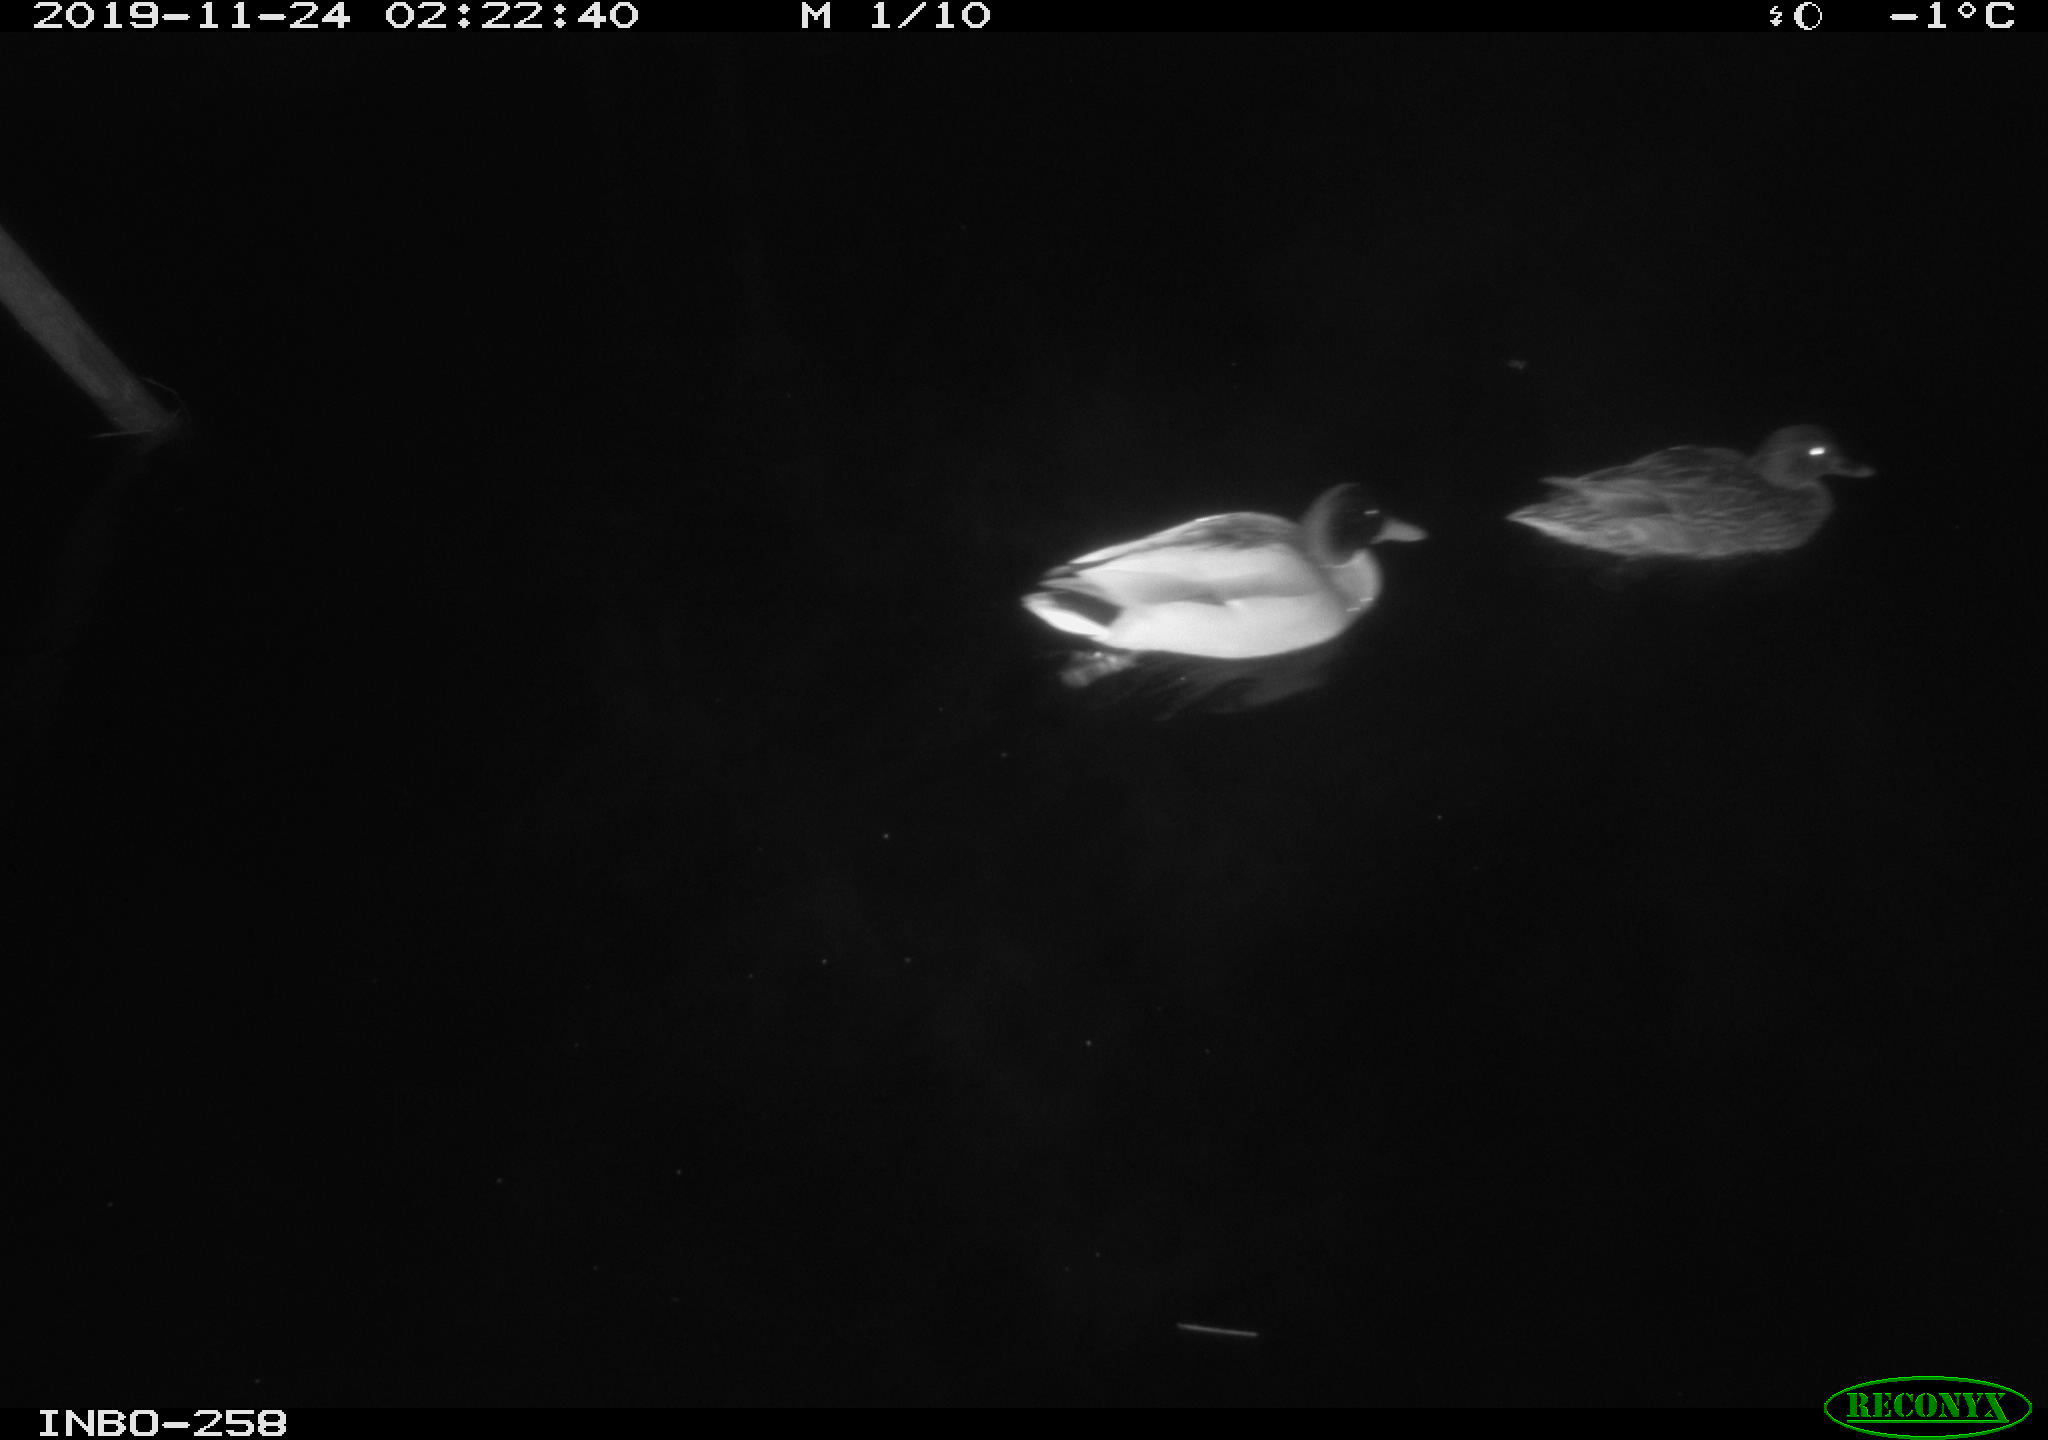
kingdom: Animalia
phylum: Chordata
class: Aves
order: Anseriformes
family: Anatidae
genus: Anas
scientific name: Anas platyrhynchos
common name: Mallard
